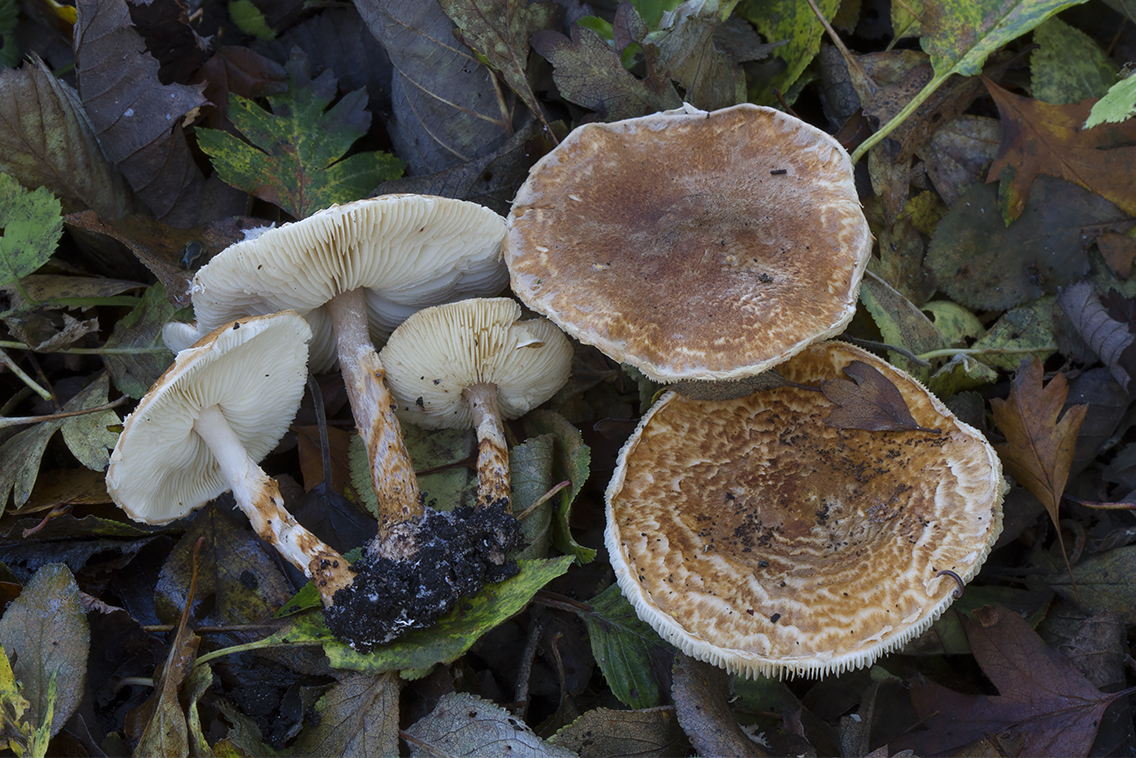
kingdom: Fungi
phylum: Basidiomycota
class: Agaricomycetes
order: Agaricales
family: Agaricaceae
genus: Leucocoprinus
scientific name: Leucocoprinus straminellus
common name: rustbrun parasolhat
